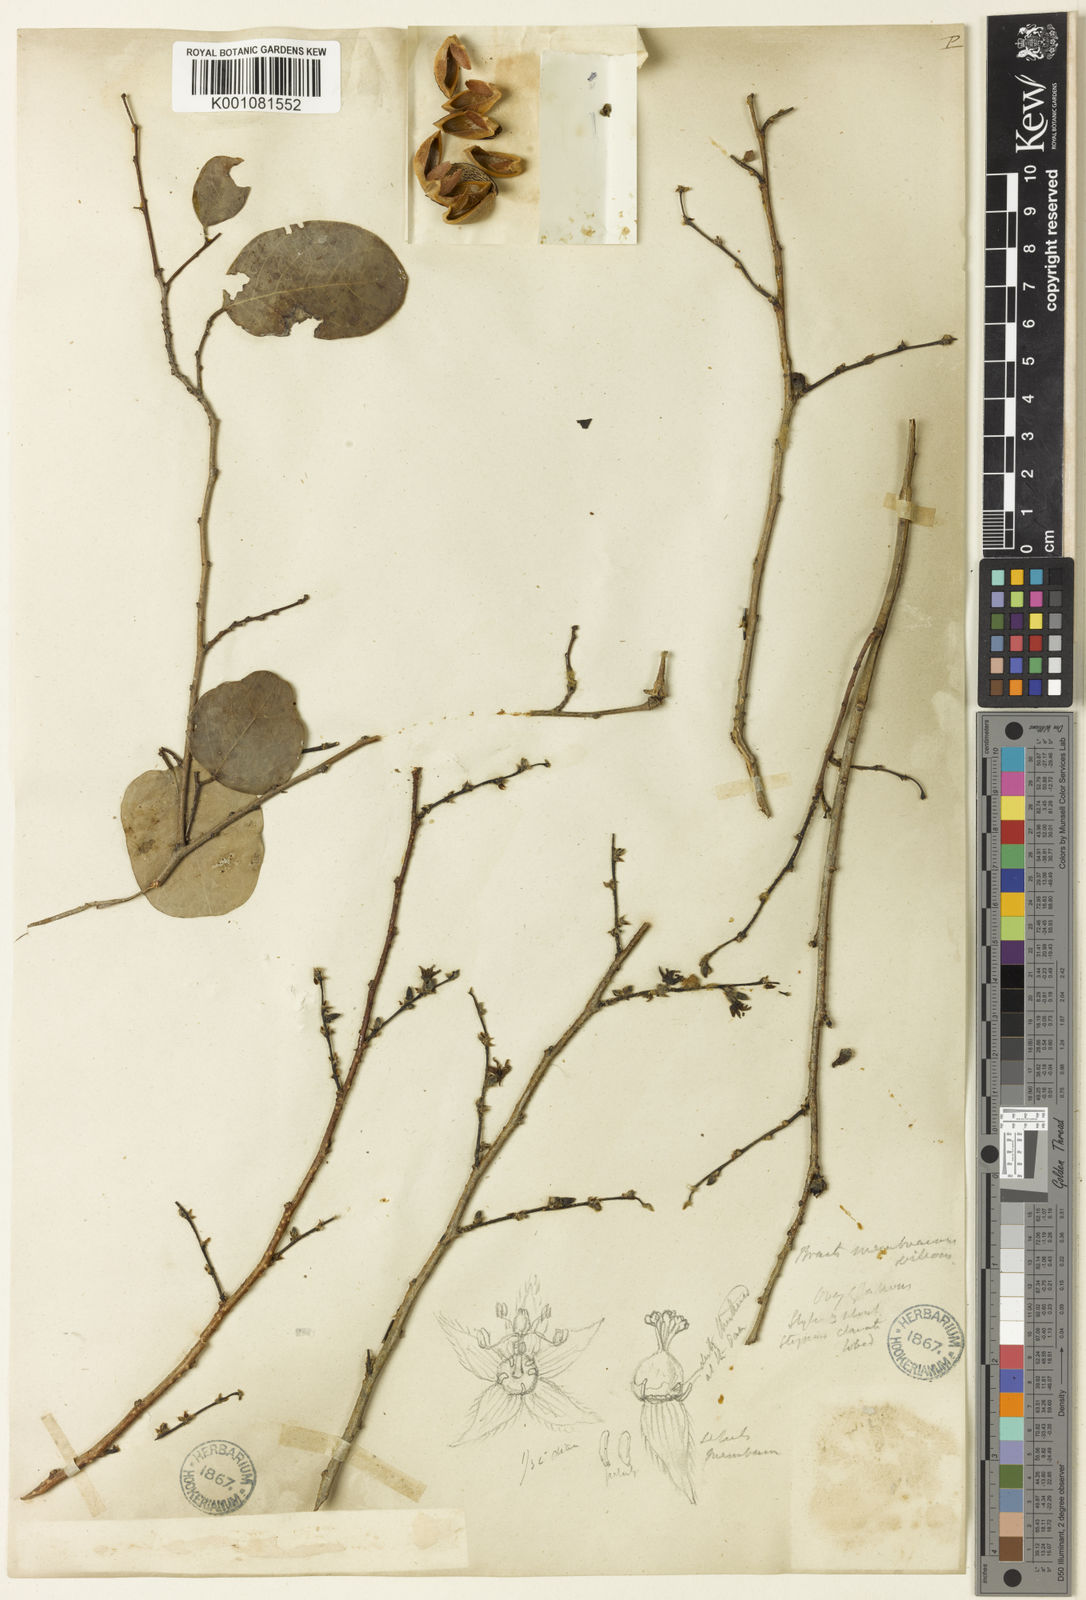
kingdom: Plantae
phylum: Tracheophyta
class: Magnoliopsida
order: Malpighiales
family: Phyllanthaceae
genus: Cleistanthus
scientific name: Cleistanthus parvifolius
